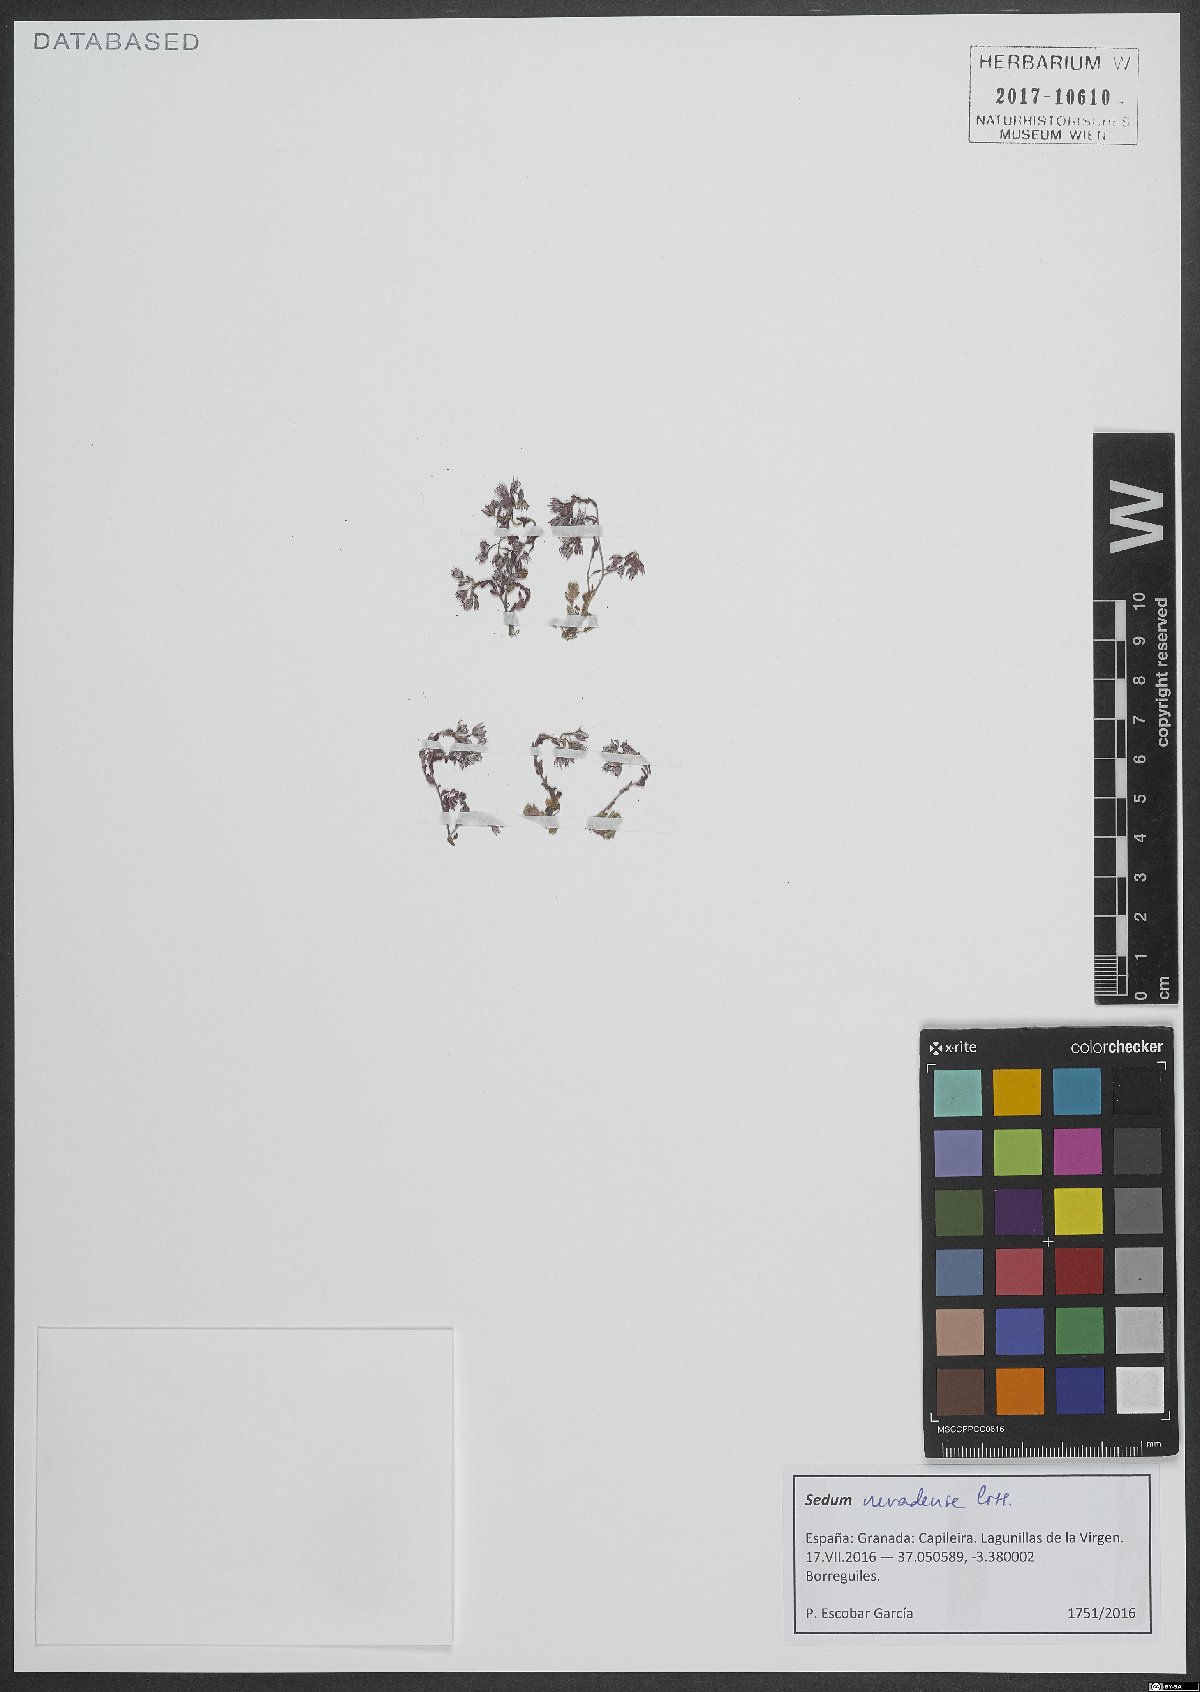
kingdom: Plantae
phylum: Tracheophyta
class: Magnoliopsida
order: Saxifragales
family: Crassulaceae
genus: Sedum
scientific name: Sedum nevadense
